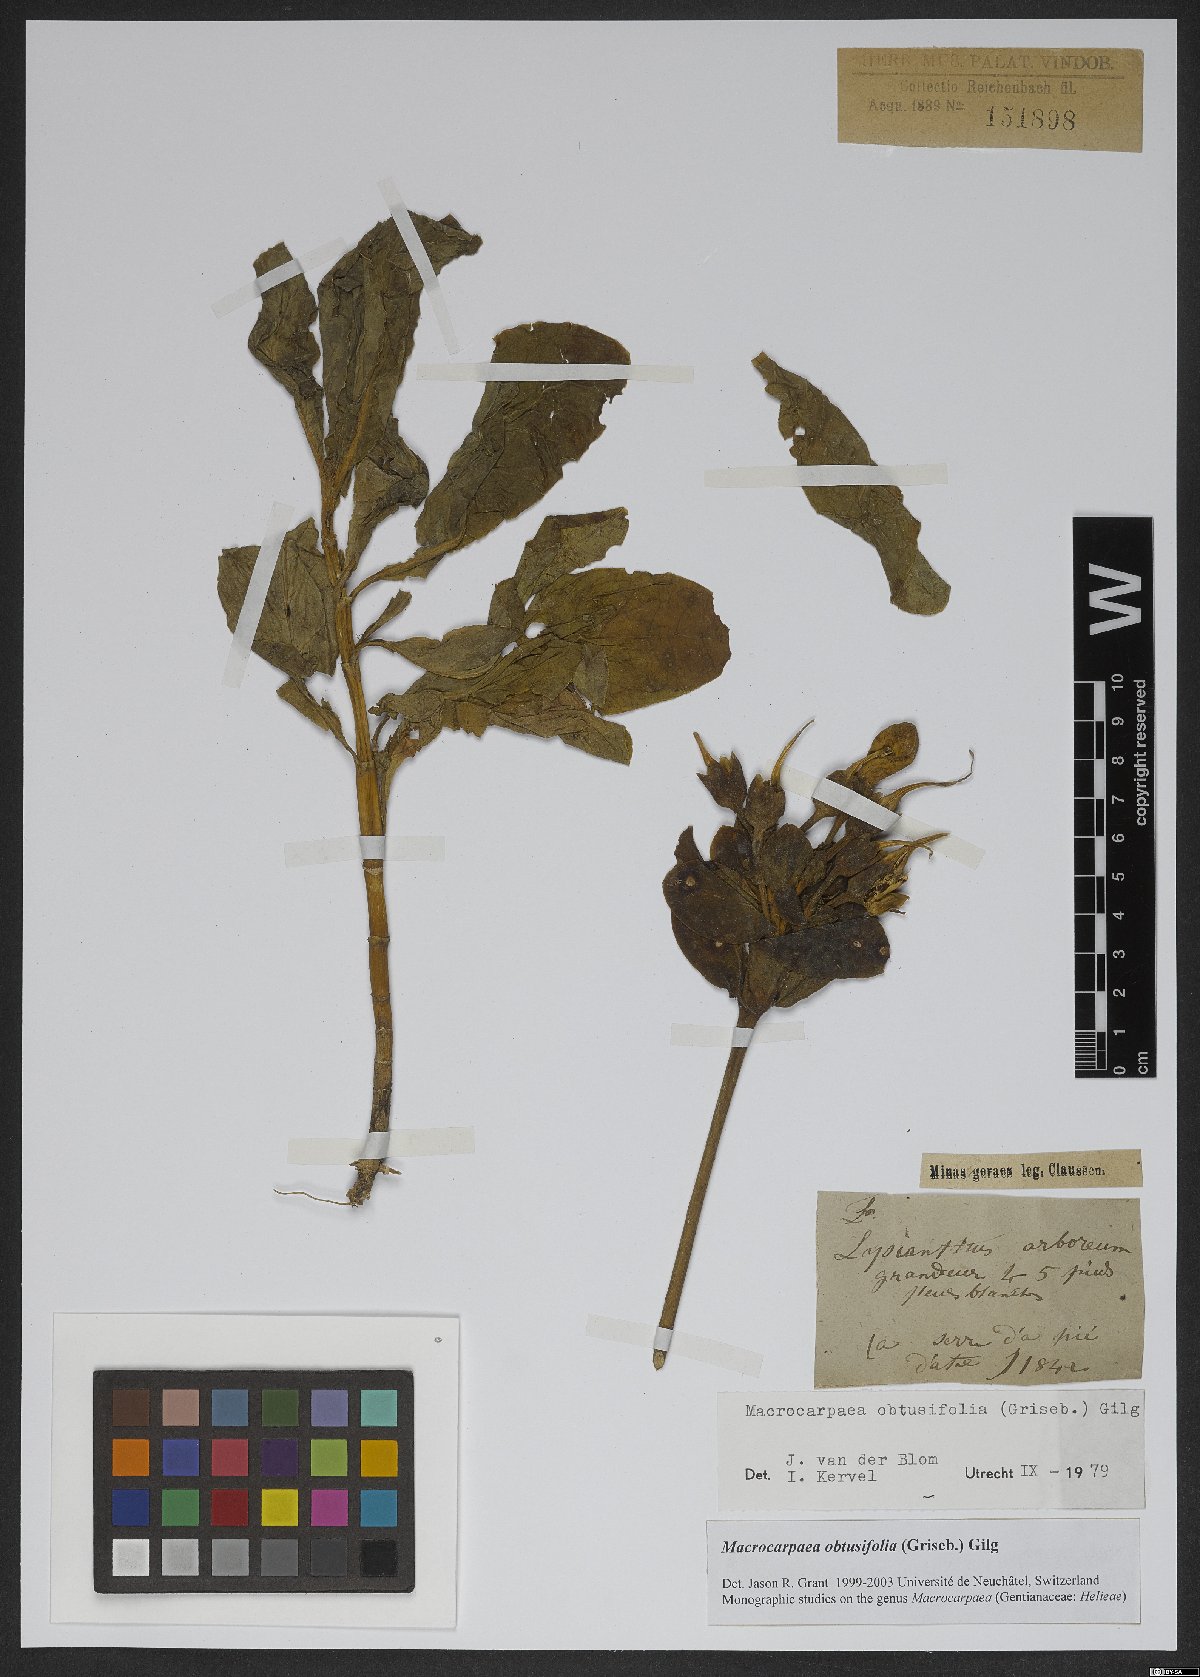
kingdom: Plantae
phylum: Tracheophyta
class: Magnoliopsida
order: Gentianales
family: Gentianaceae
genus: Macrocarpaea
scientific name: Macrocarpaea obtusifolia
